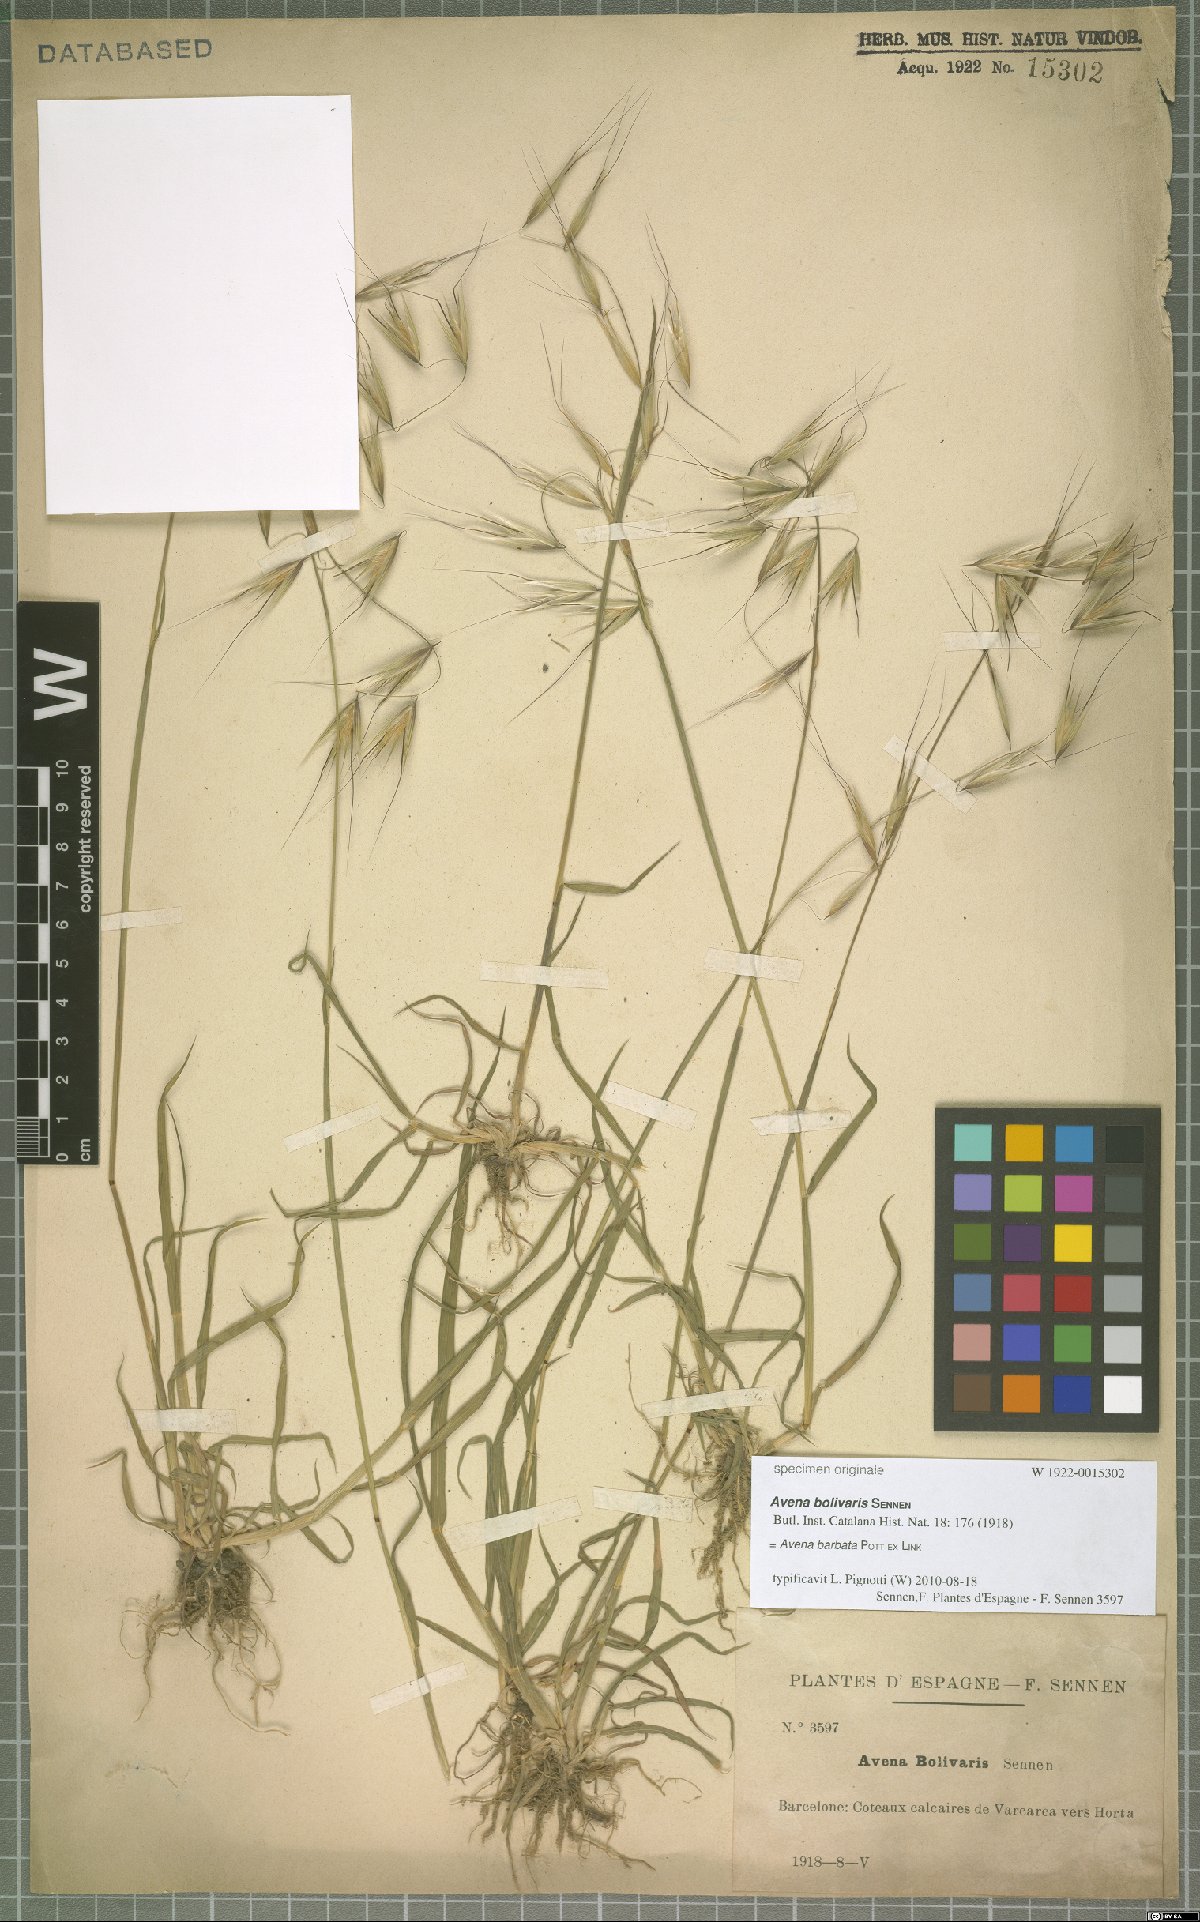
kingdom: Plantae
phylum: Tracheophyta
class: Liliopsida
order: Poales
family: Poaceae
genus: Avena
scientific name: Avena barbata
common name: Slender oat
